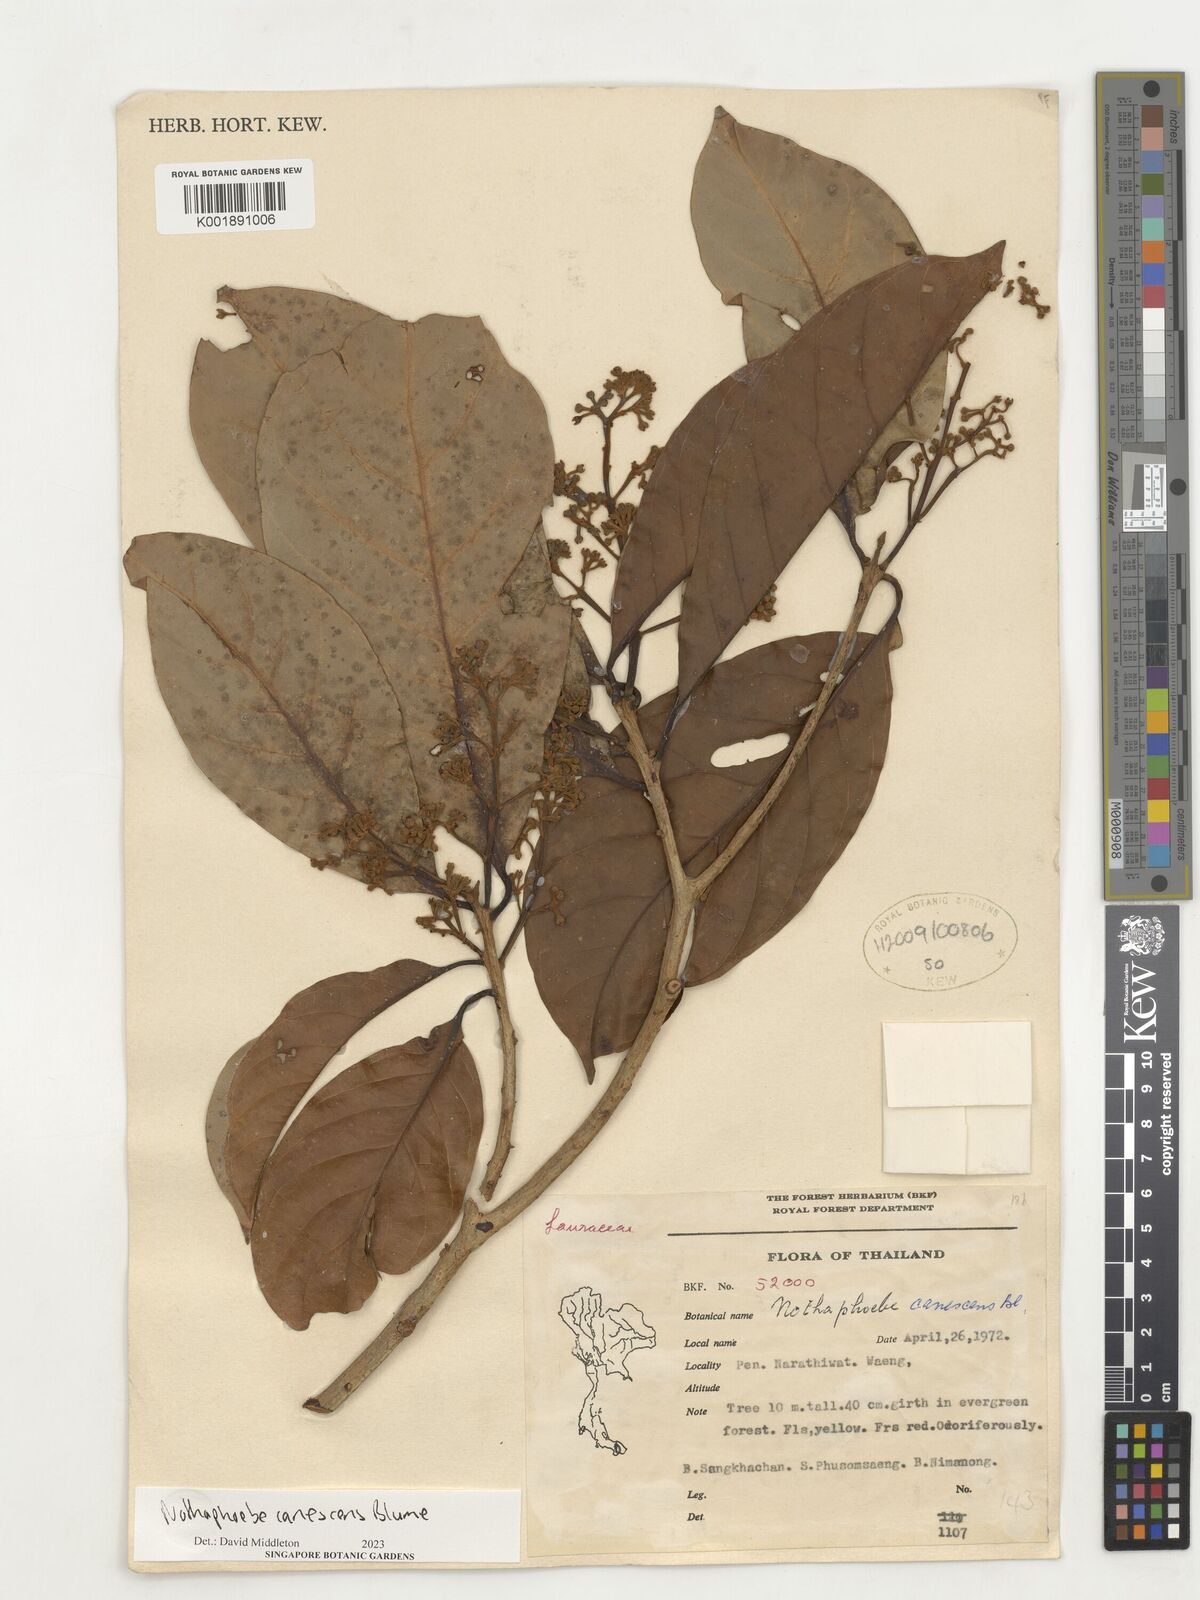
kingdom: Plantae
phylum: Tracheophyta
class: Magnoliopsida
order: Laurales
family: Lauraceae
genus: Phoebe
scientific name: Phoebe canescens
